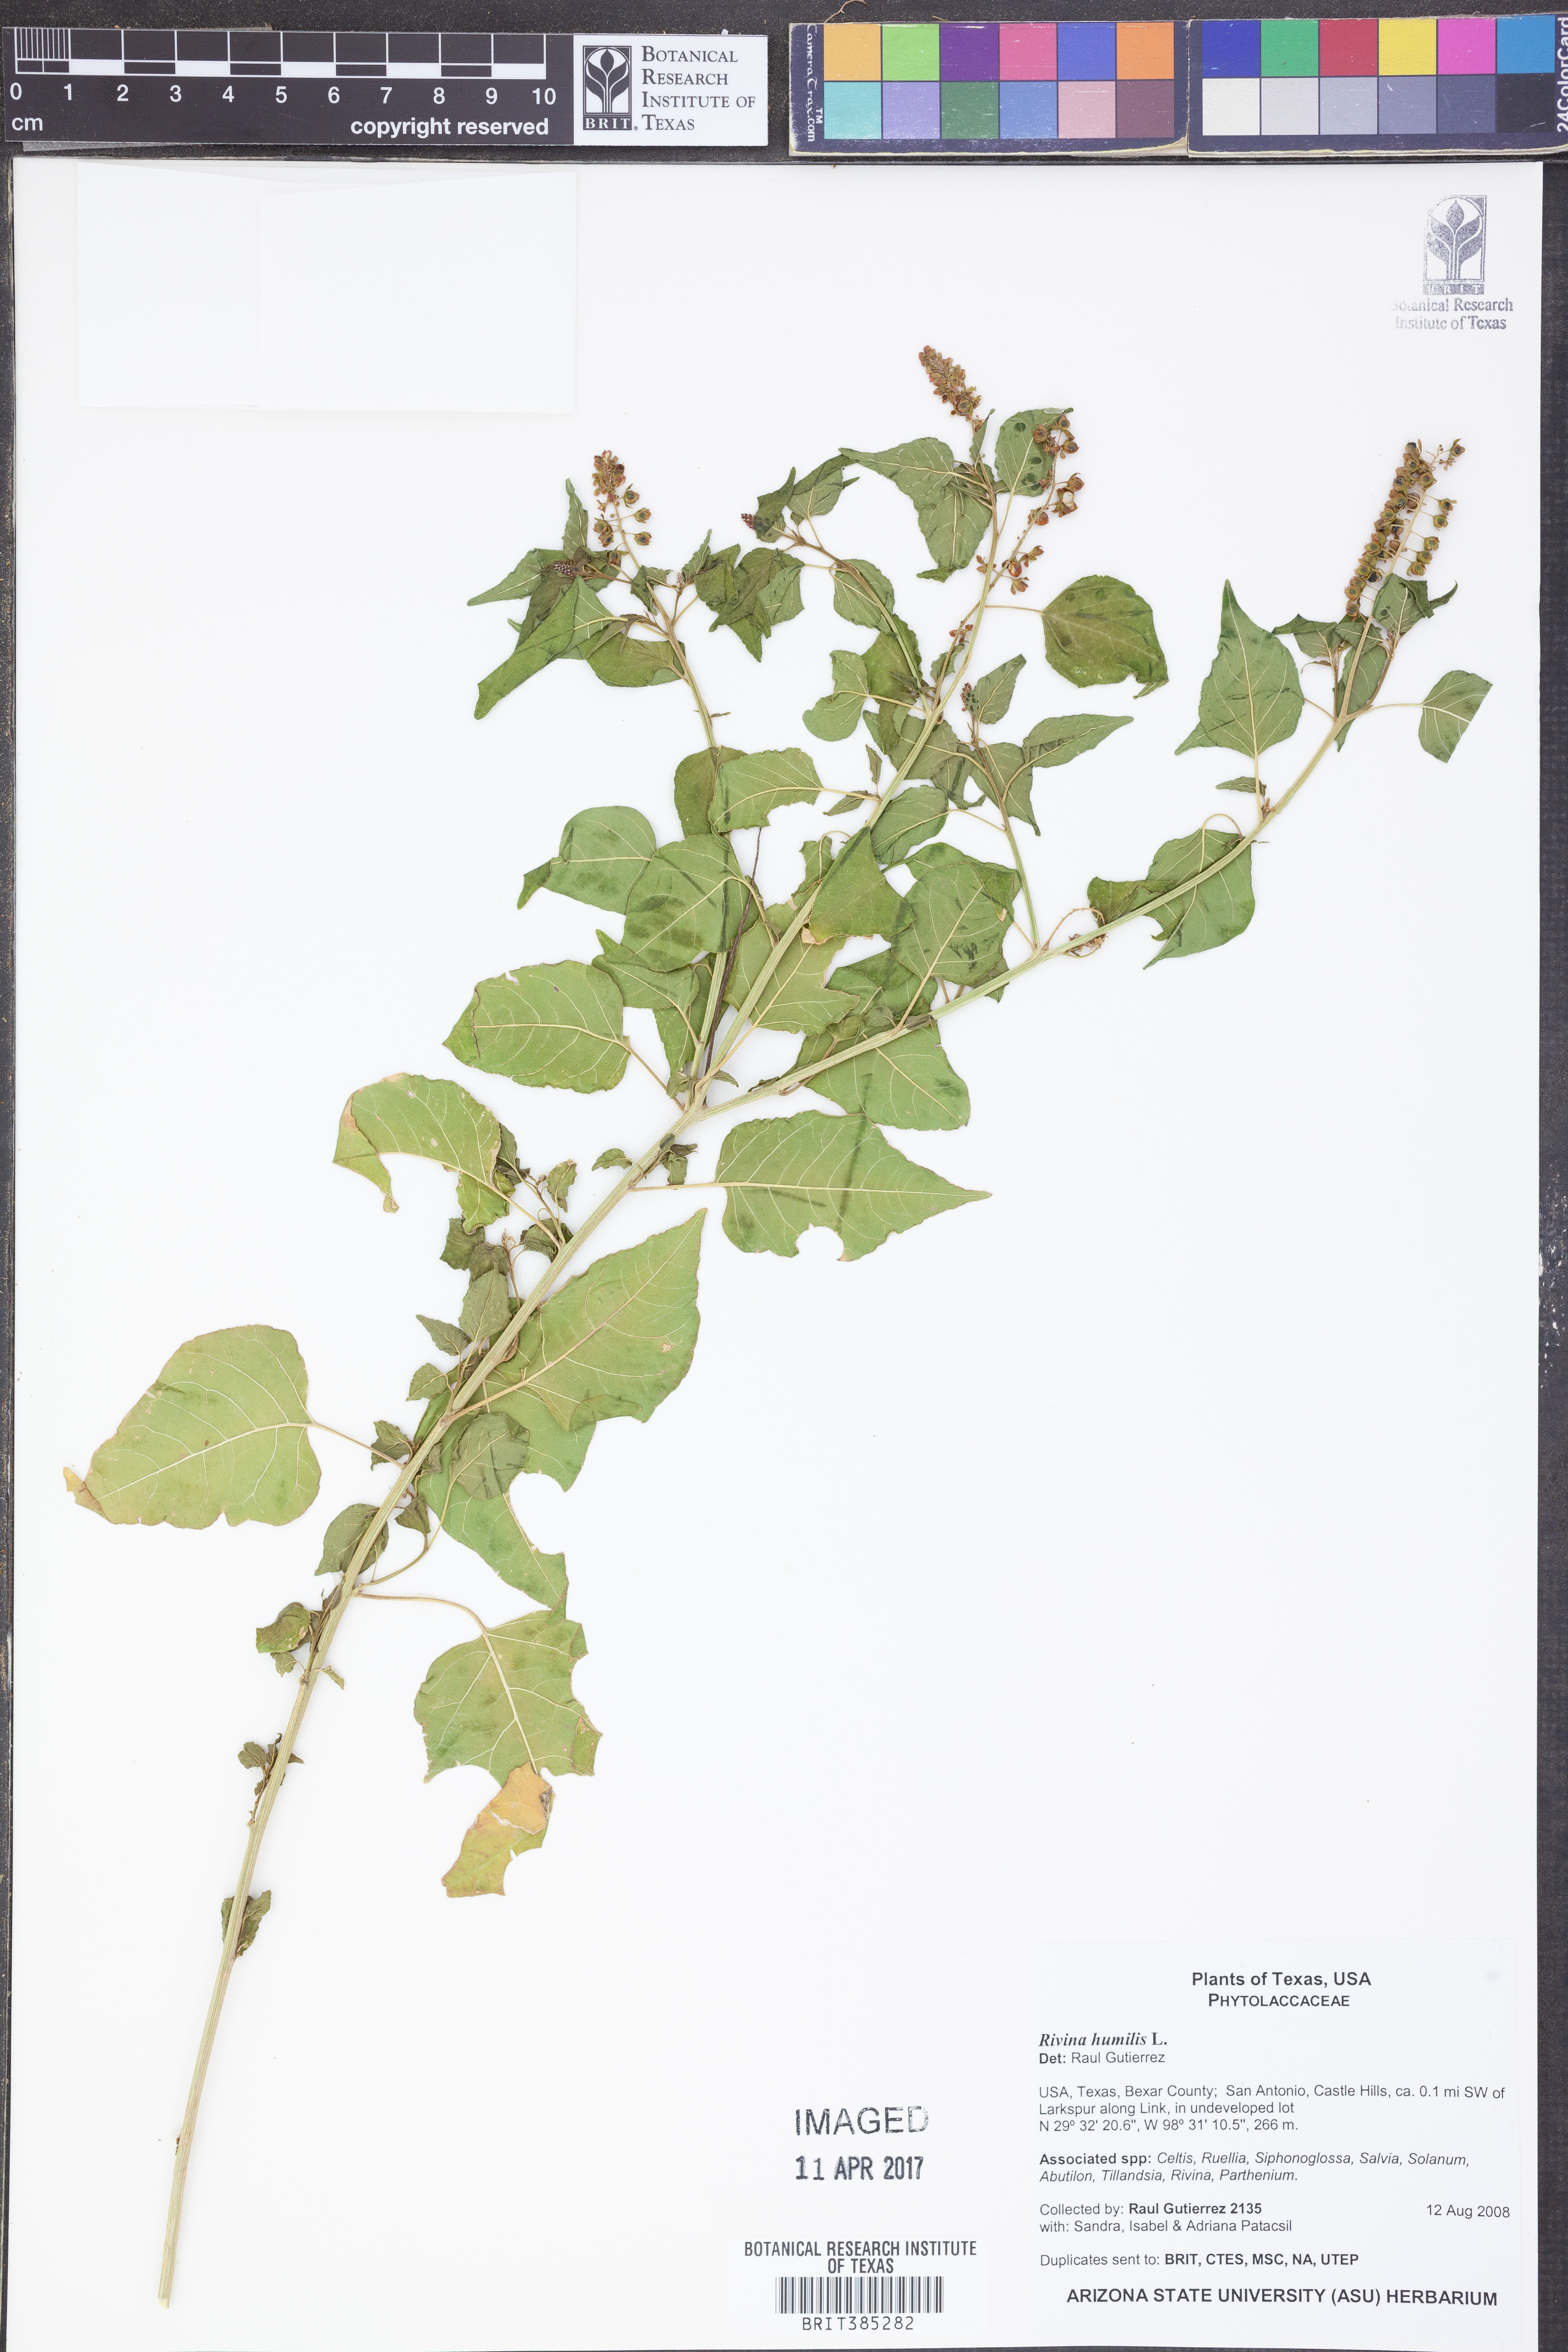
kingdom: Plantae
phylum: Tracheophyta
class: Magnoliopsida
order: Caryophyllales
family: Phytolaccaceae
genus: Rivina
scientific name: Rivina humilis
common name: Rougeplant
